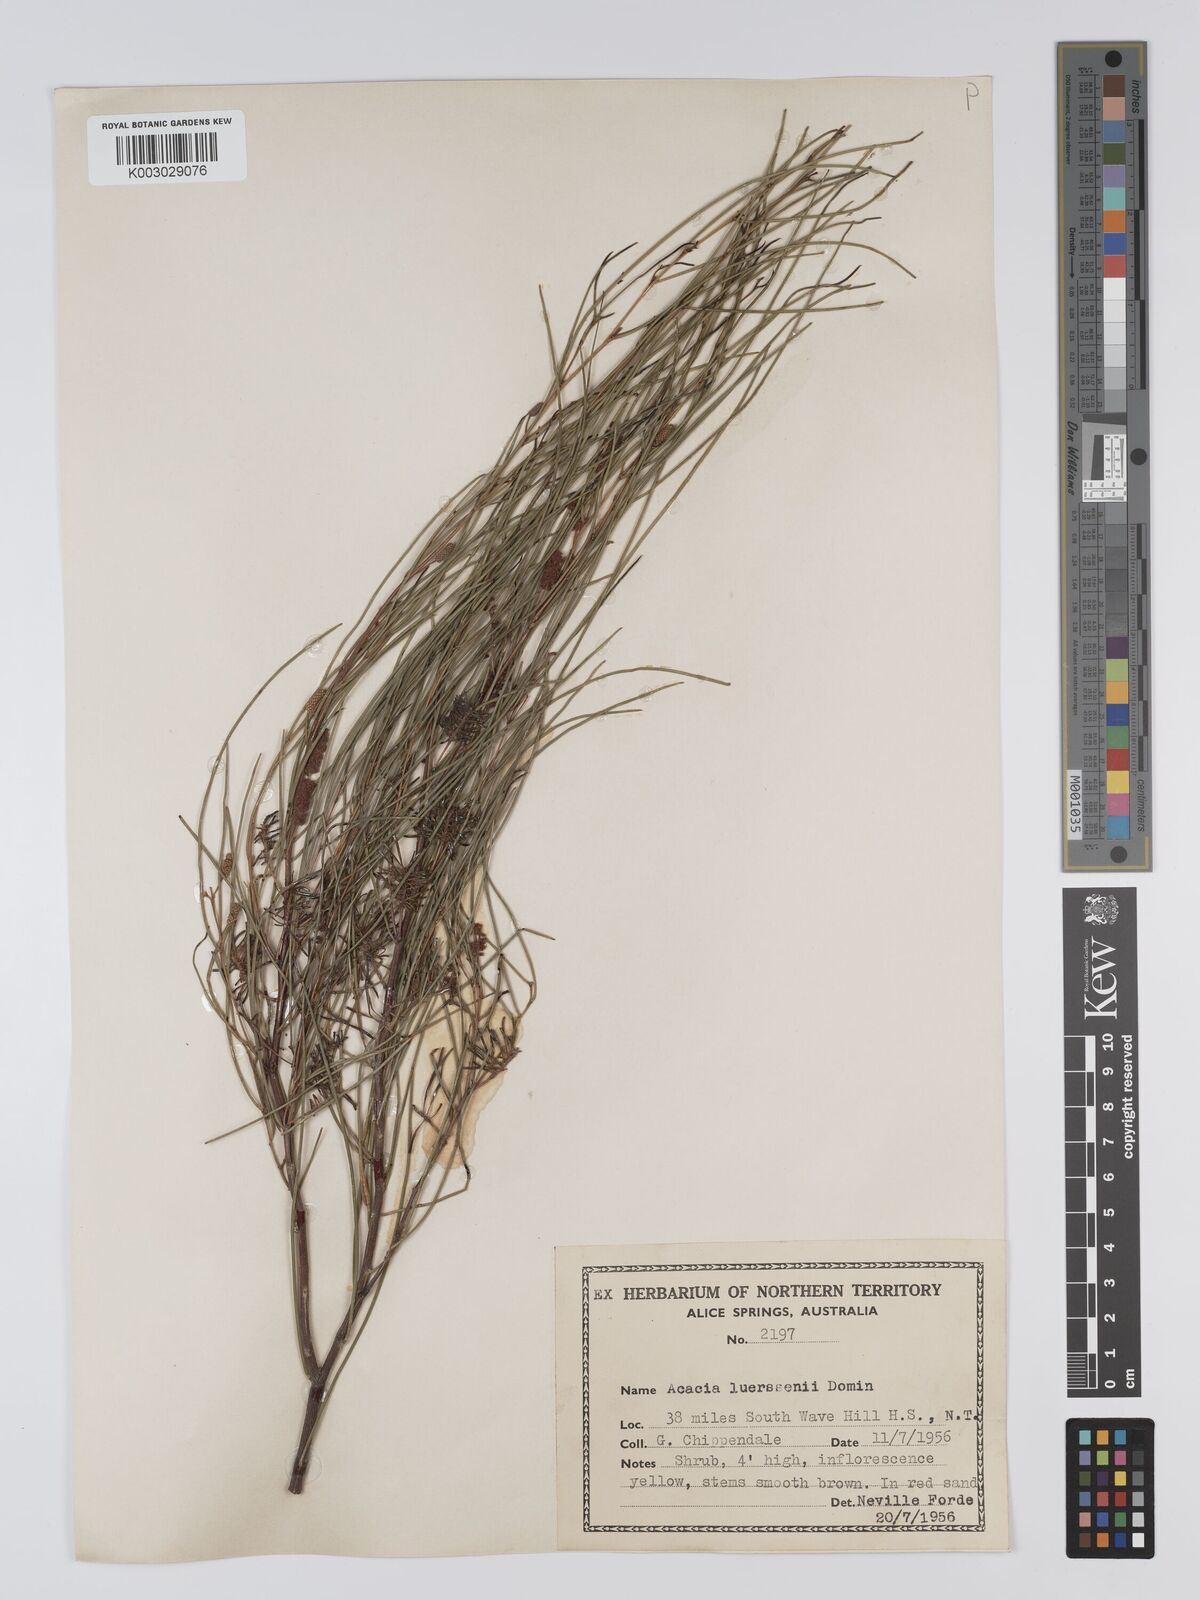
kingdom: Plantae
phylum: Tracheophyta
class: Magnoliopsida
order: Fabales
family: Fabaceae
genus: Acacia
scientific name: Acacia tenuissima
